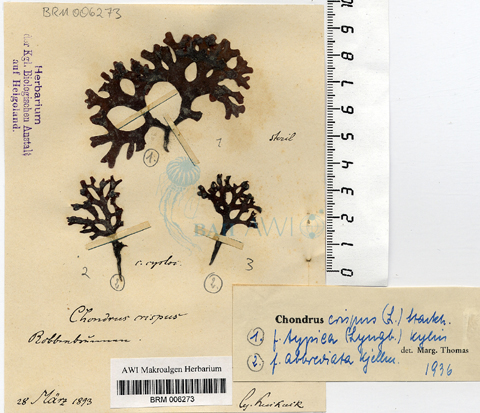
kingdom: Plantae
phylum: Rhodophyta
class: Florideophyceae
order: Gigartinales
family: Gigartinaceae
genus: Chondrus
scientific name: Chondrus crispus
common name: Carrageen
